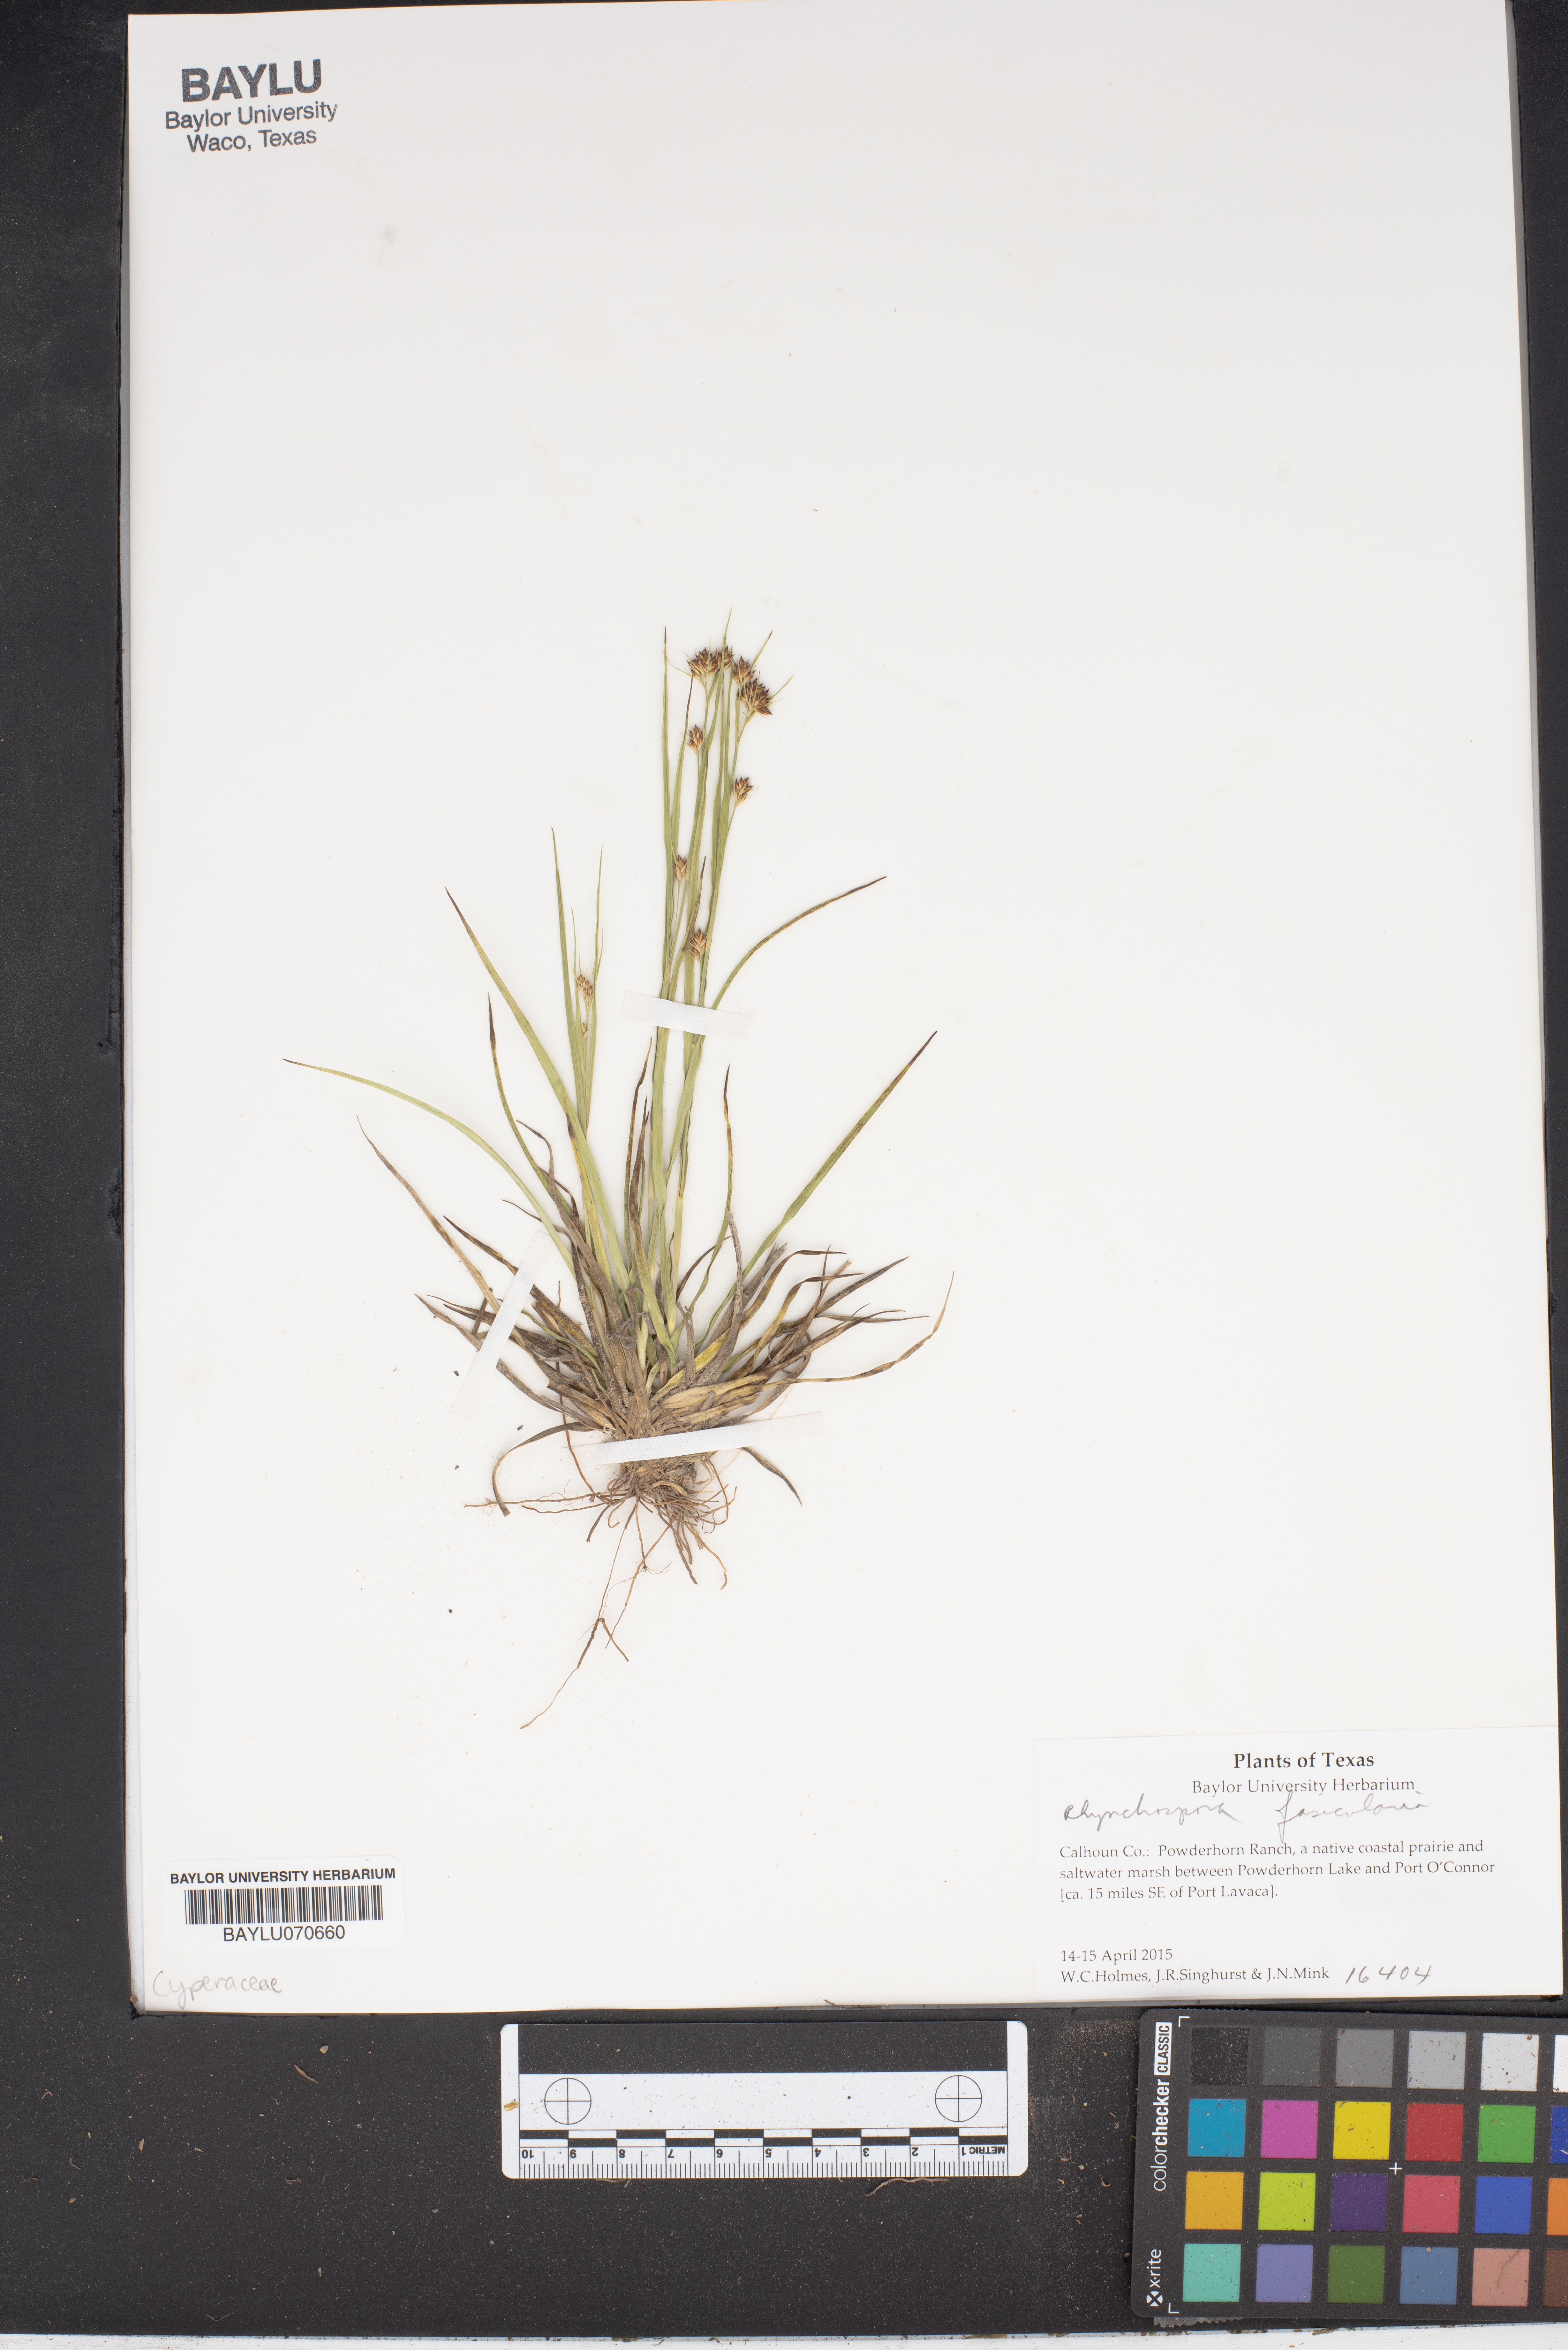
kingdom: Plantae
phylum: Tracheophyta
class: Liliopsida
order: Poales
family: Cyperaceae
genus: Rhynchospora
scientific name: Rhynchospora fascicularis
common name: Fascicled beak sedge
